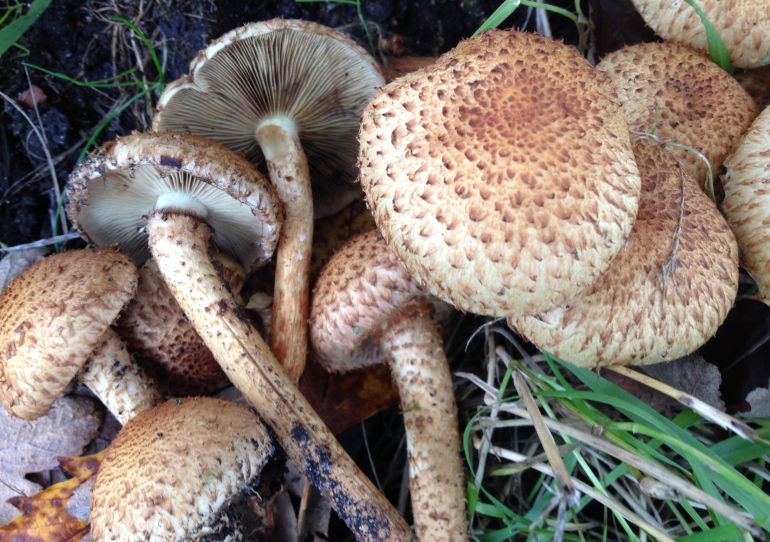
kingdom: Fungi
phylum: Basidiomycota
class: Agaricomycetes
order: Agaricales
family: Strophariaceae
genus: Pholiota
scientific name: Pholiota squarrosa
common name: krumskællet skælhat
